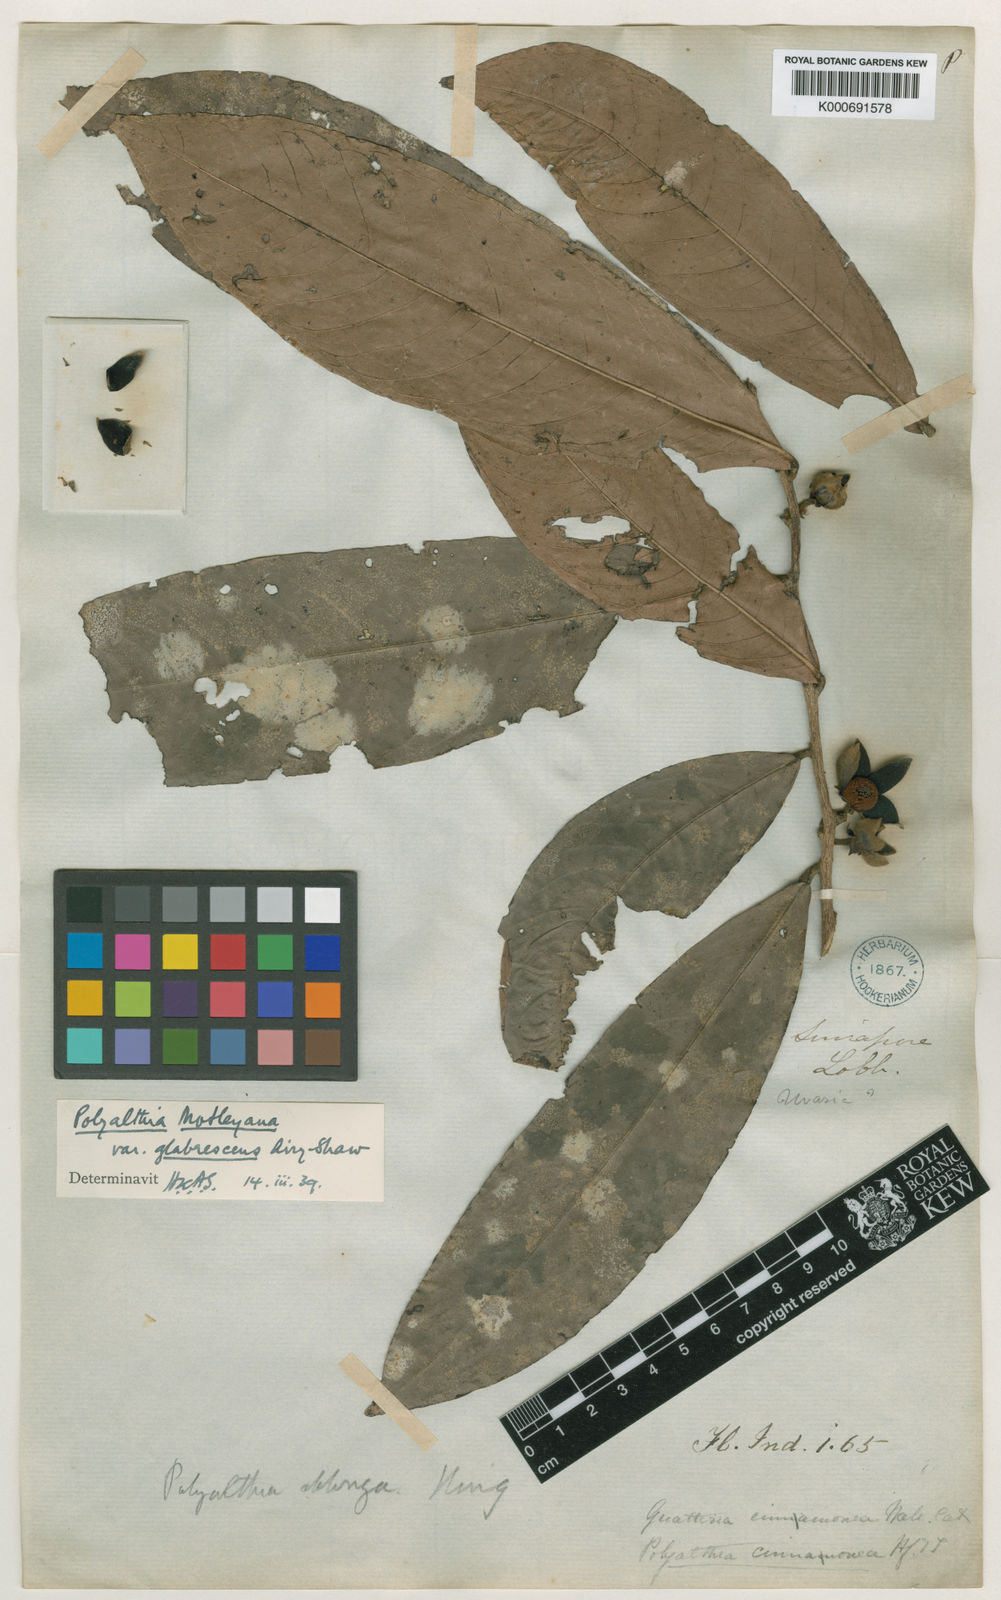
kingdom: Plantae
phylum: Tracheophyta
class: Magnoliopsida
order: Magnoliales
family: Annonaceae
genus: Polyalthia
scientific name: Polyalthia motleyana
